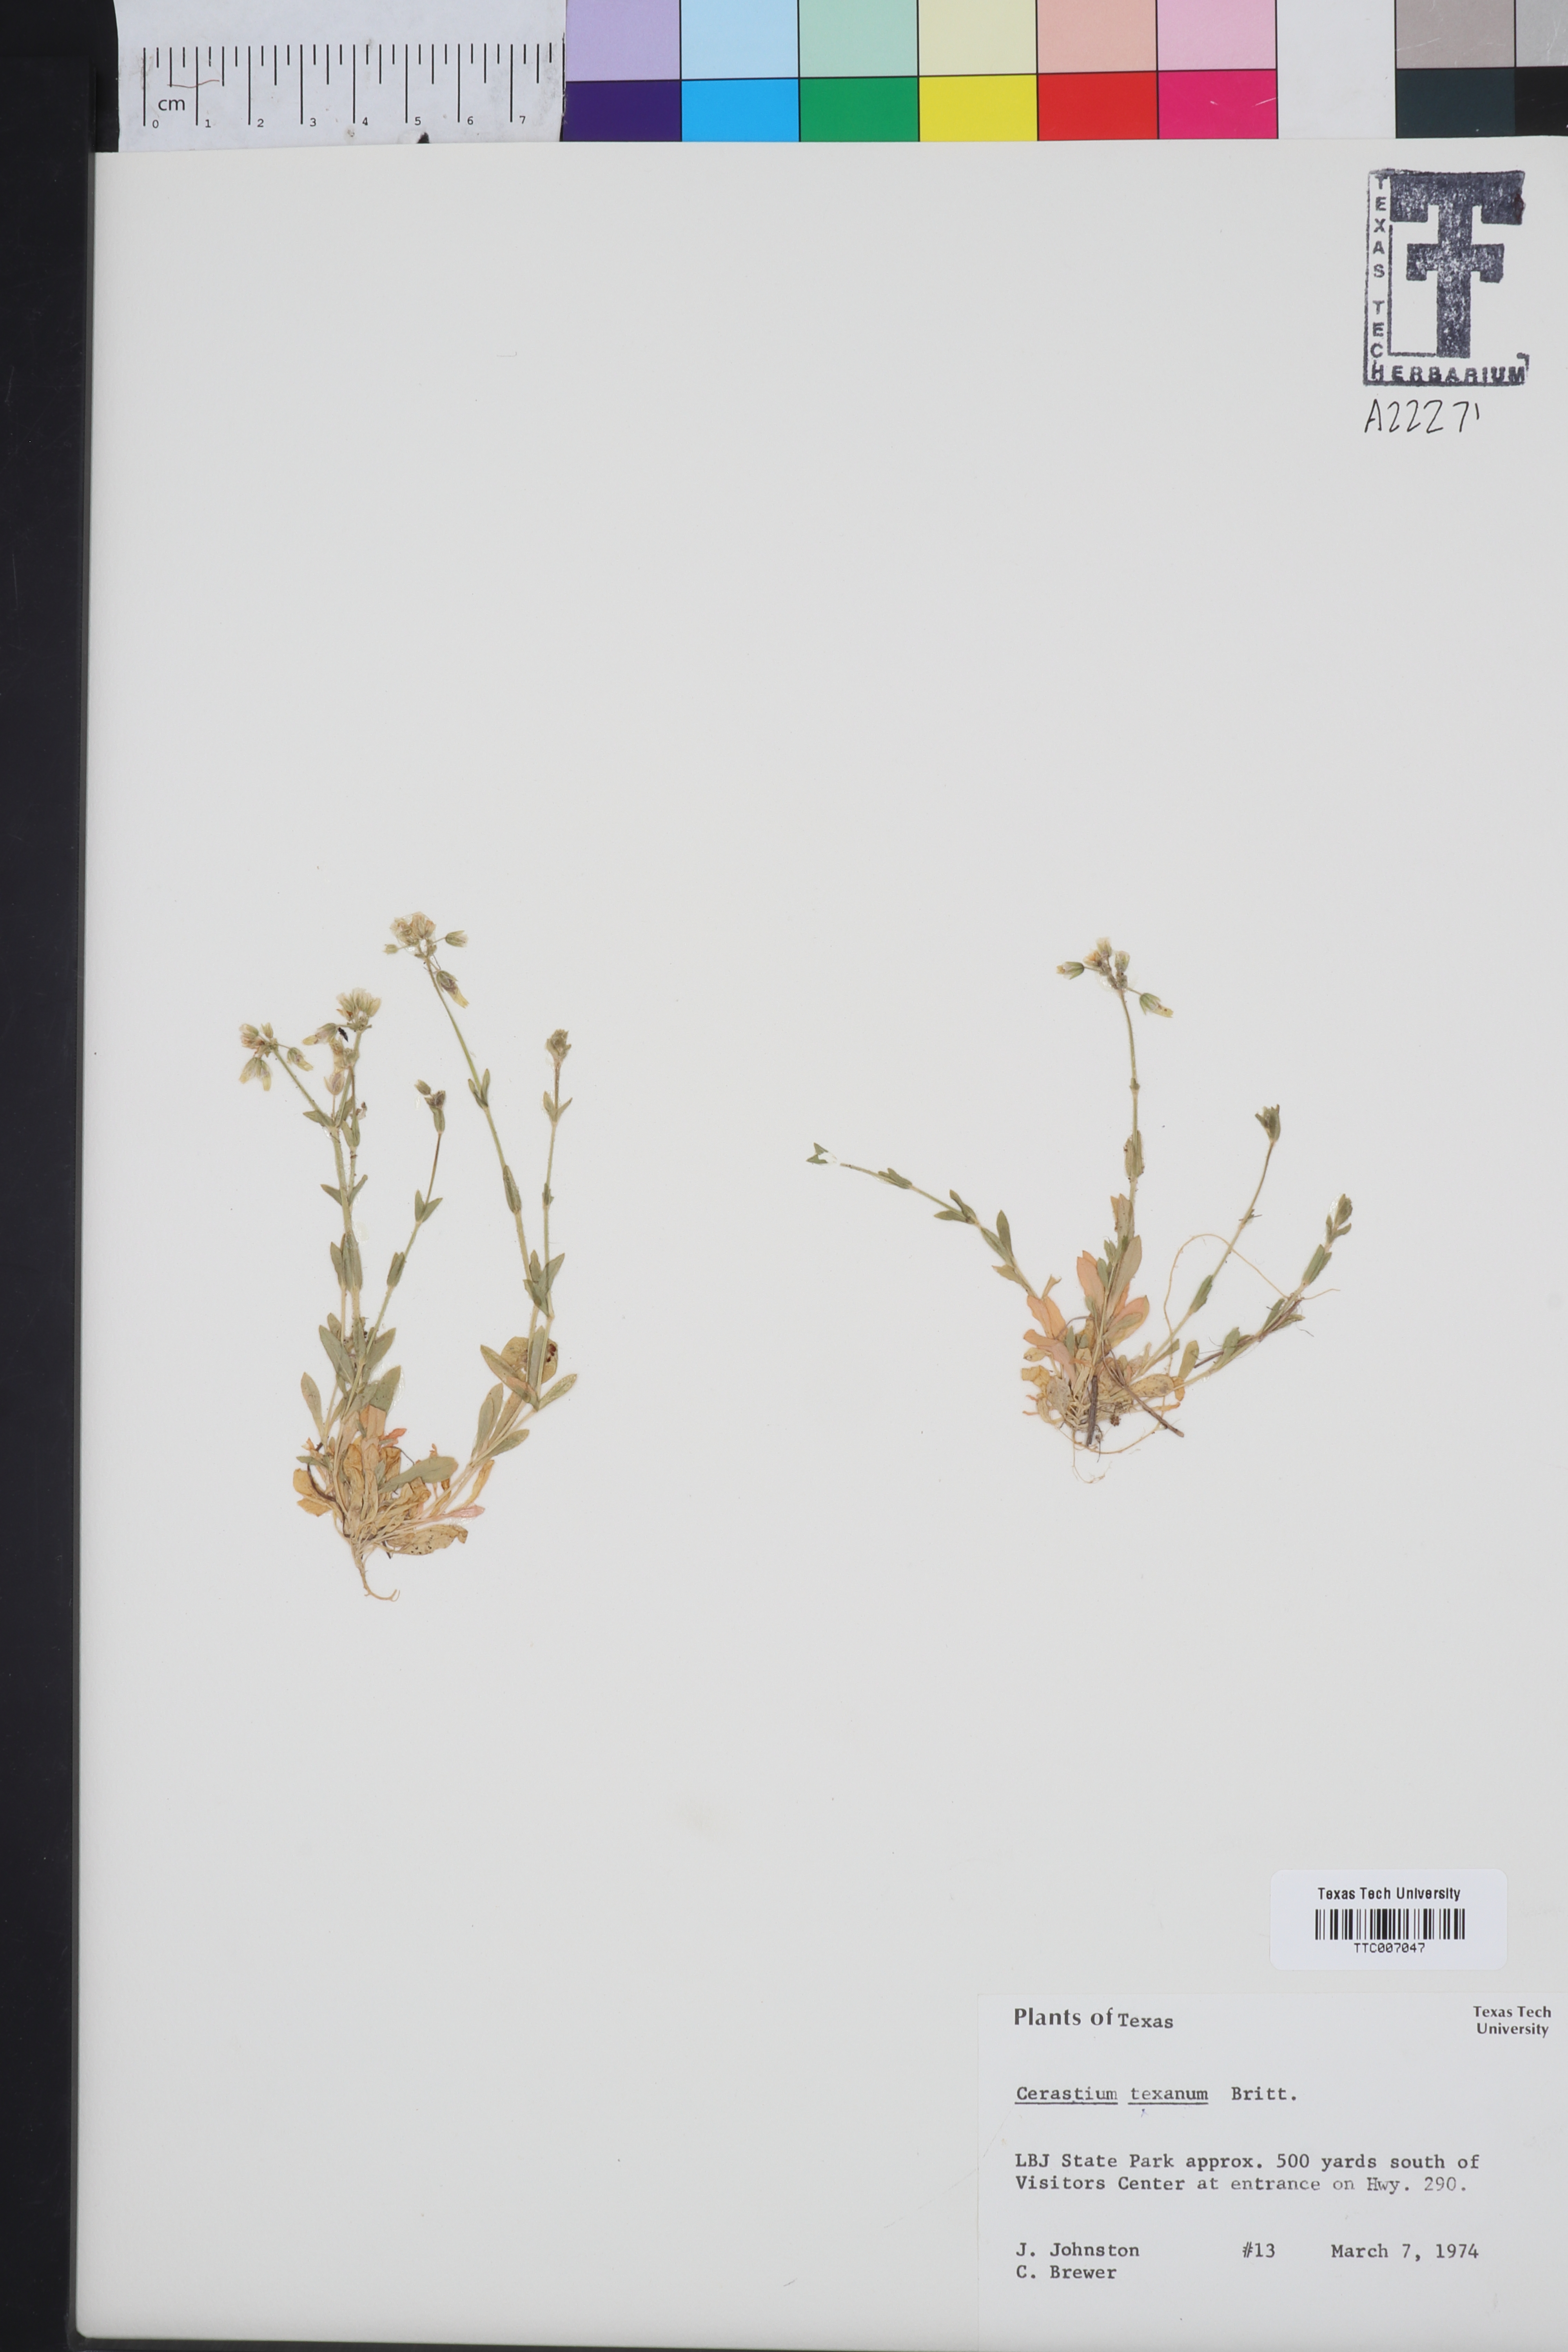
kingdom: Plantae
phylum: Tracheophyta
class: Magnoliopsida
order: Caryophyllales
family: Caryophyllaceae
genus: Cerastium
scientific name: Cerastium texanum
